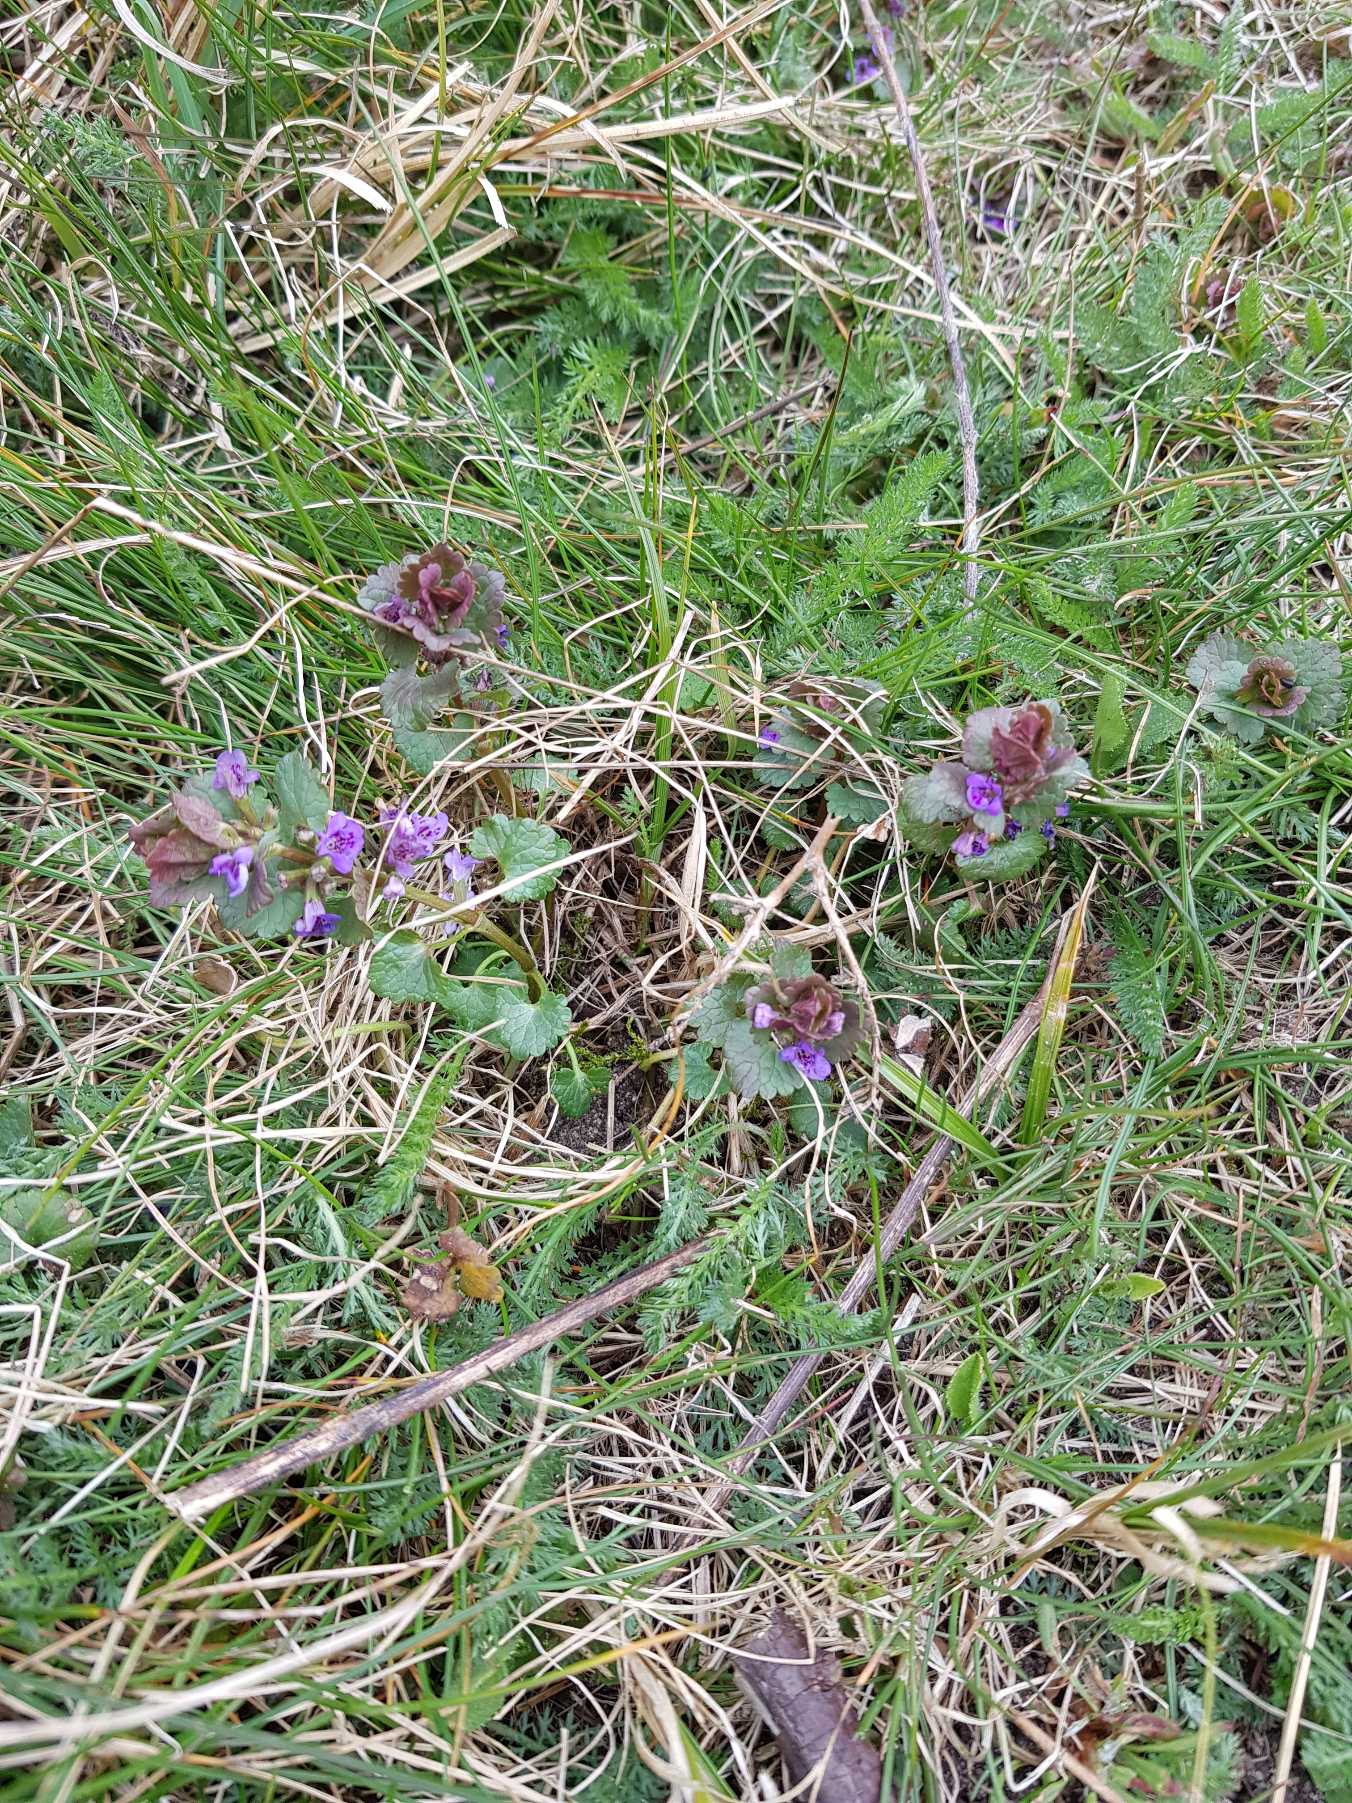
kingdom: Plantae
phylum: Tracheophyta
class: Magnoliopsida
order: Lamiales
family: Lamiaceae
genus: Glechoma
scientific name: Glechoma hederacea
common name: Korsknap
